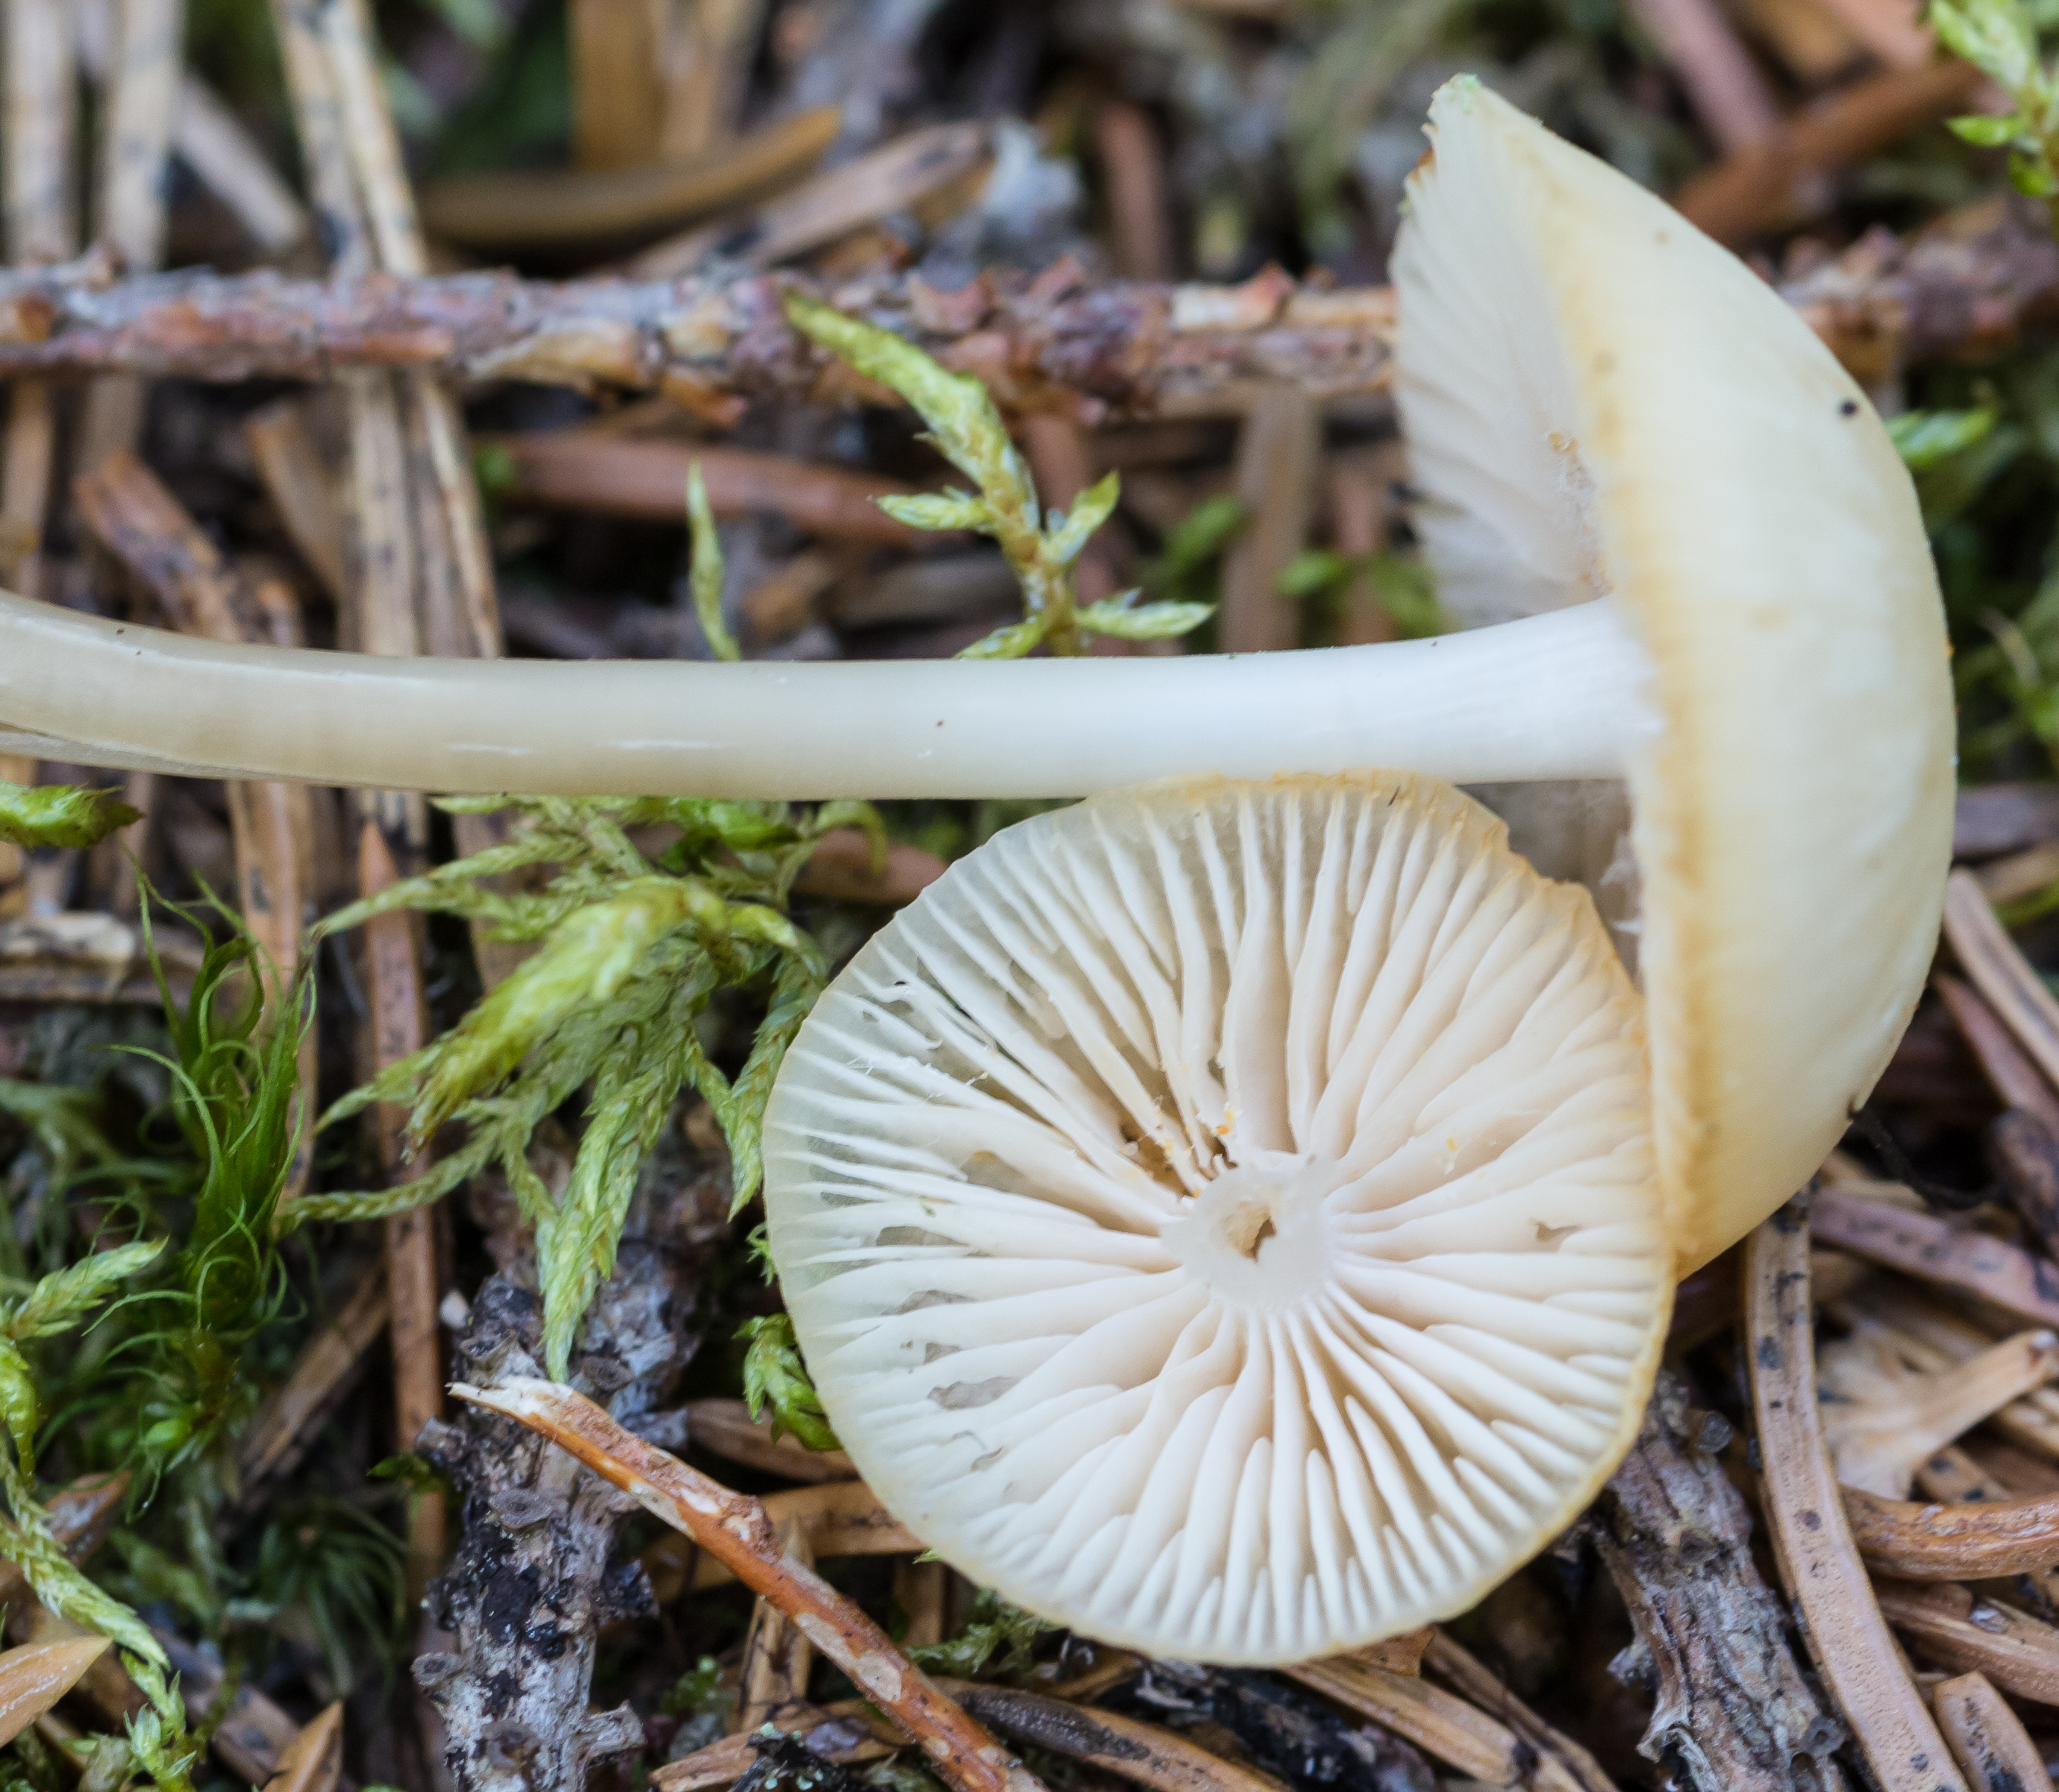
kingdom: Fungi
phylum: Basidiomycota
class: Agaricomycetes
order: Agaricales
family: Mycenaceae
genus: Mycena
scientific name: Mycena laevigata
